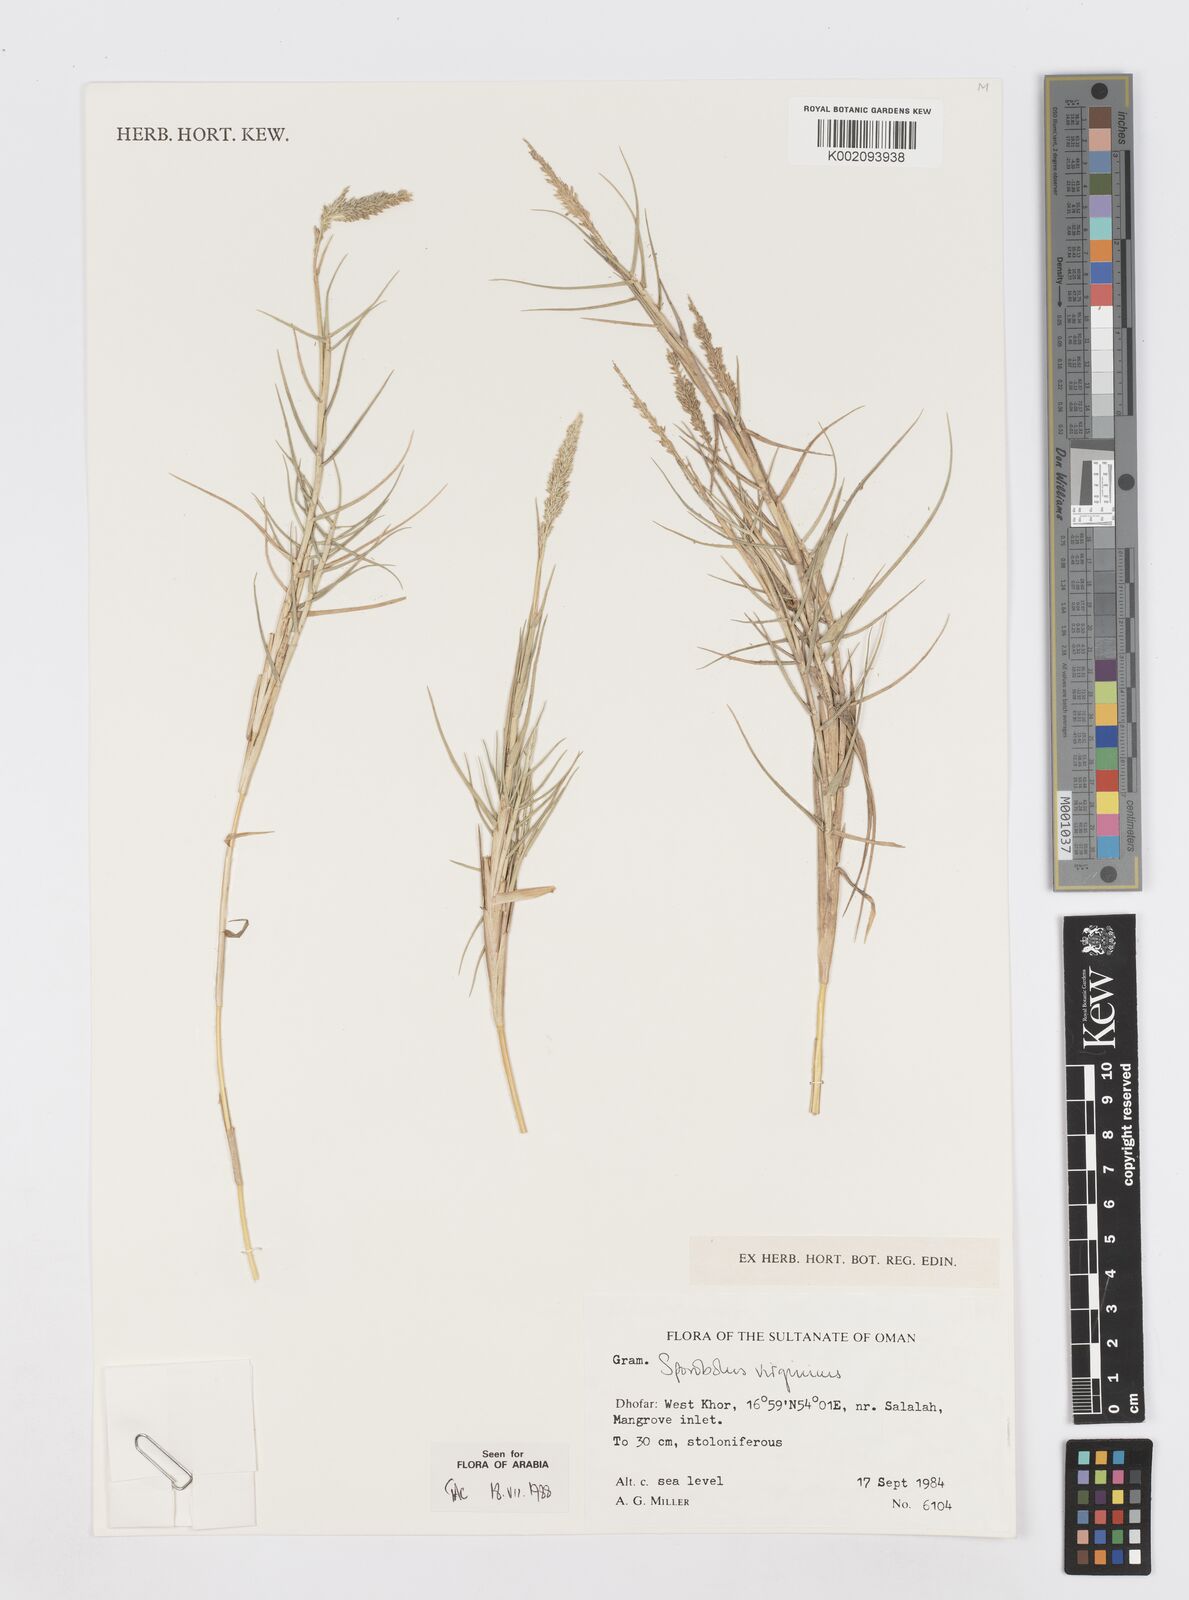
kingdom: Plantae
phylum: Tracheophyta
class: Liliopsida
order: Poales
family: Poaceae
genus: Sporobolus
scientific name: Sporobolus virginicus
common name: Beach dropseed
